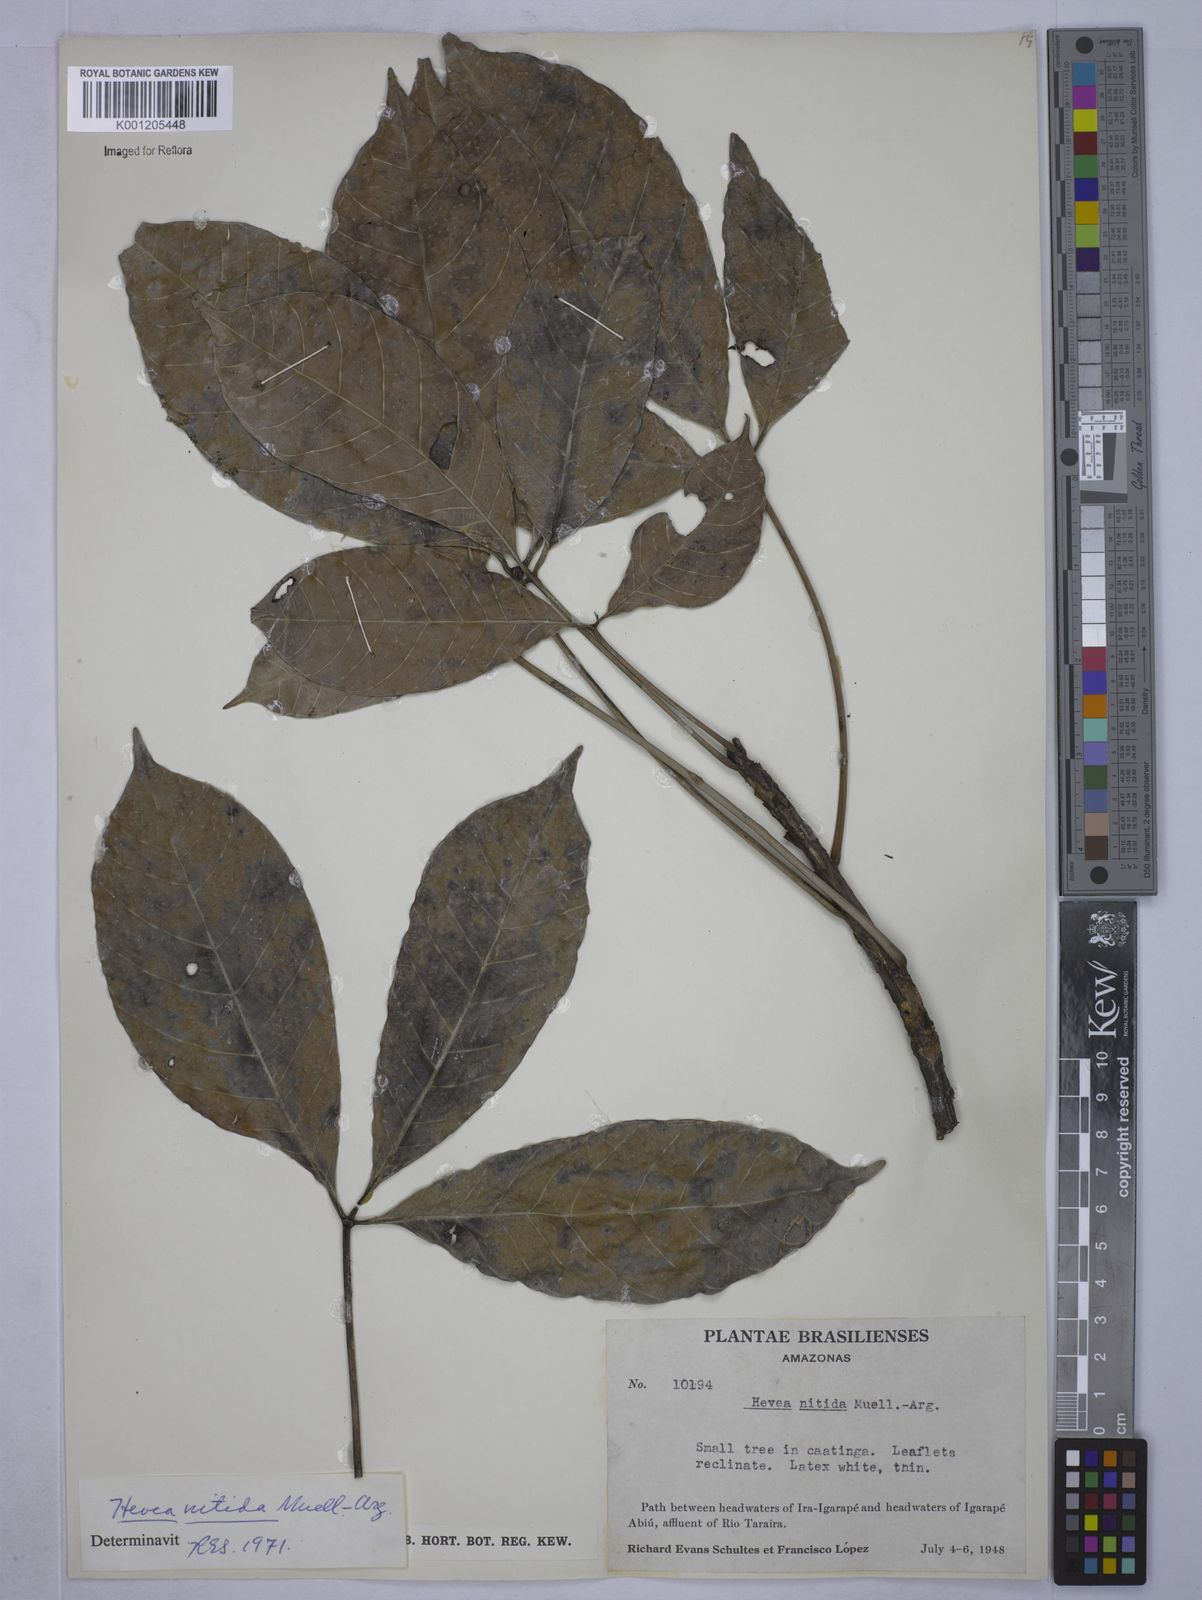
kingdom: Plantae
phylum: Tracheophyta
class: Magnoliopsida
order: Malpighiales
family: Euphorbiaceae
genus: Hevea
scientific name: Hevea
